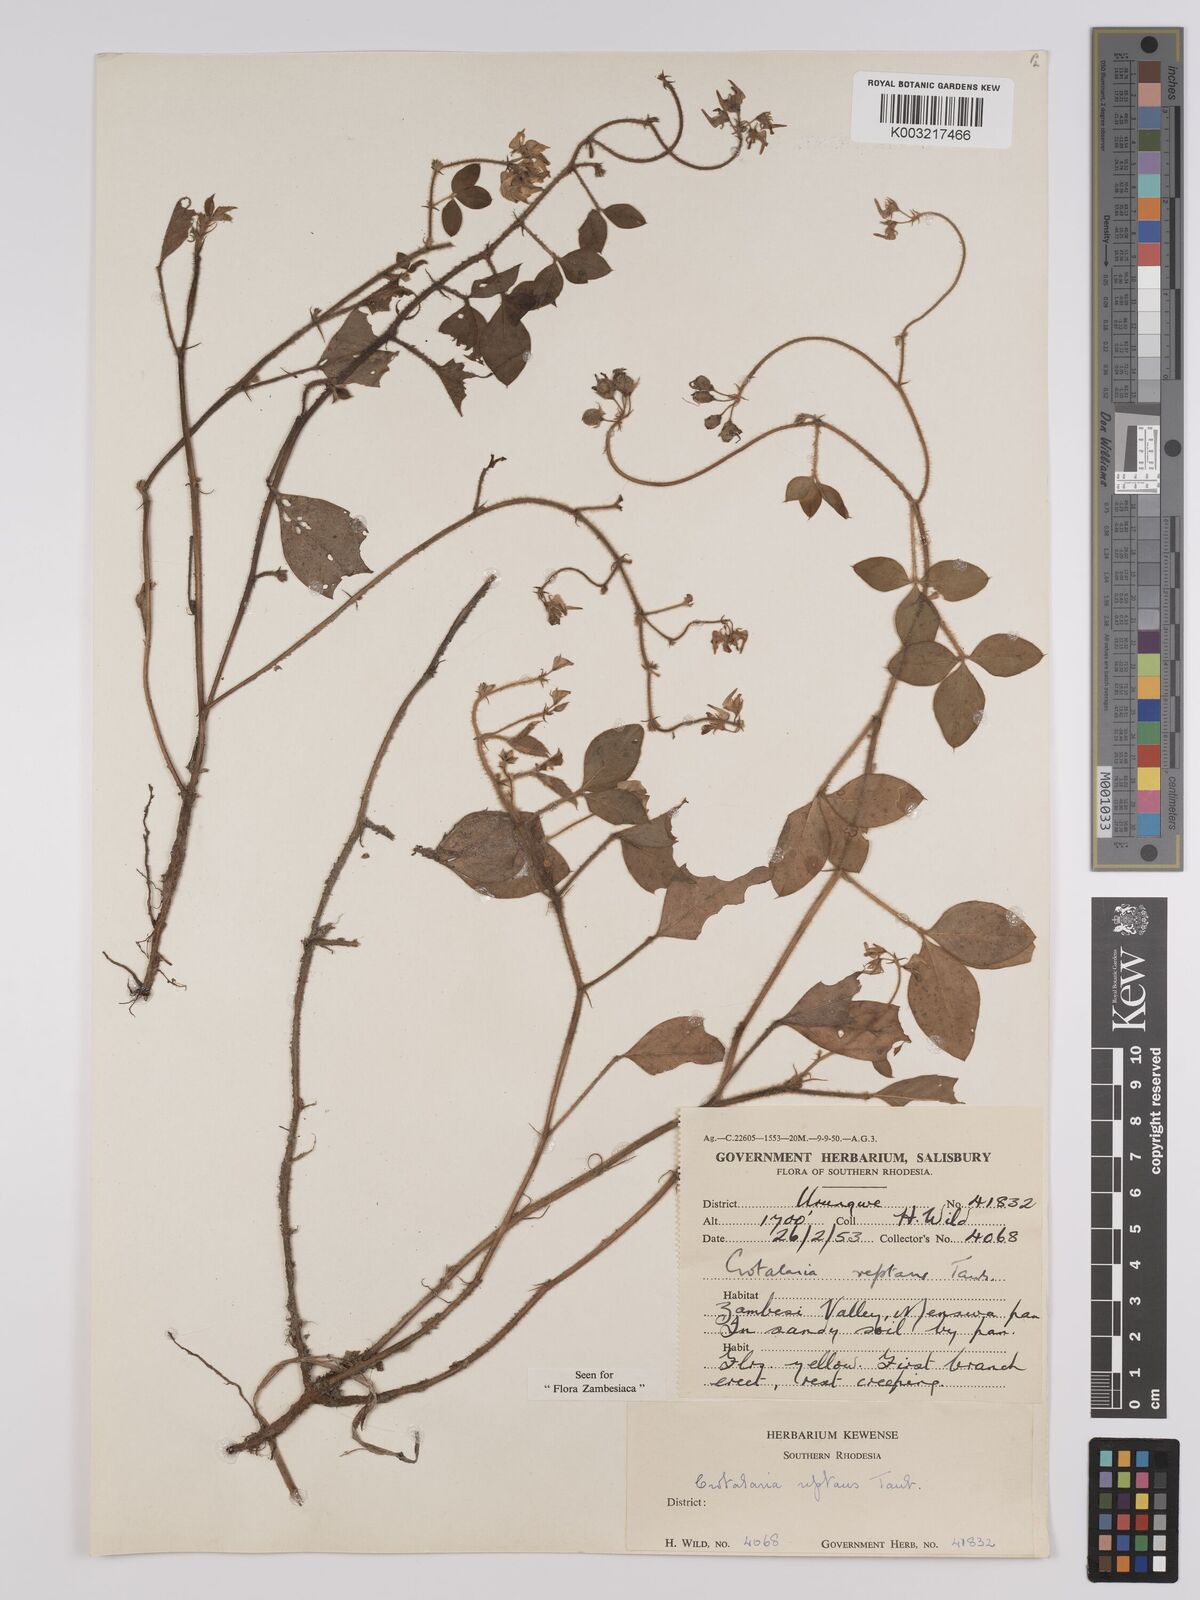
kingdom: Plantae
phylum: Tracheophyta
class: Magnoliopsida
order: Fabales
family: Fabaceae
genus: Crotalaria
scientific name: Crotalaria reptans
